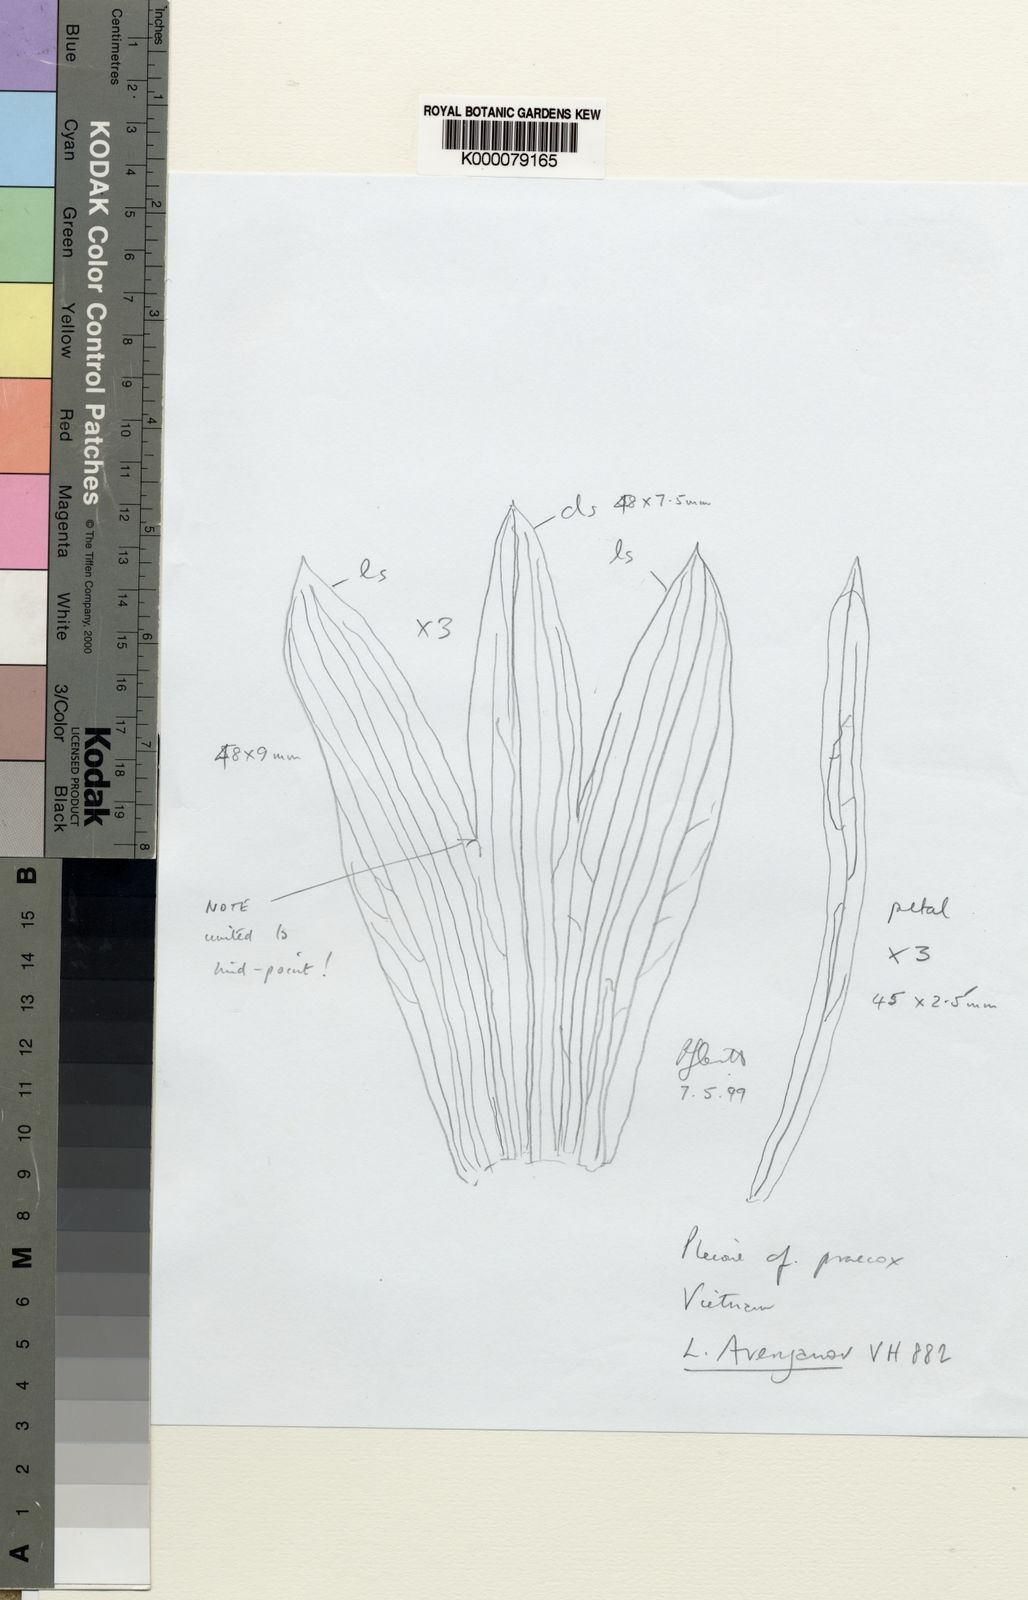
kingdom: Plantae
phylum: Tracheophyta
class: Liliopsida
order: Asparagales
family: Orchidaceae
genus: Pleione
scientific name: Pleione vietnamensis
